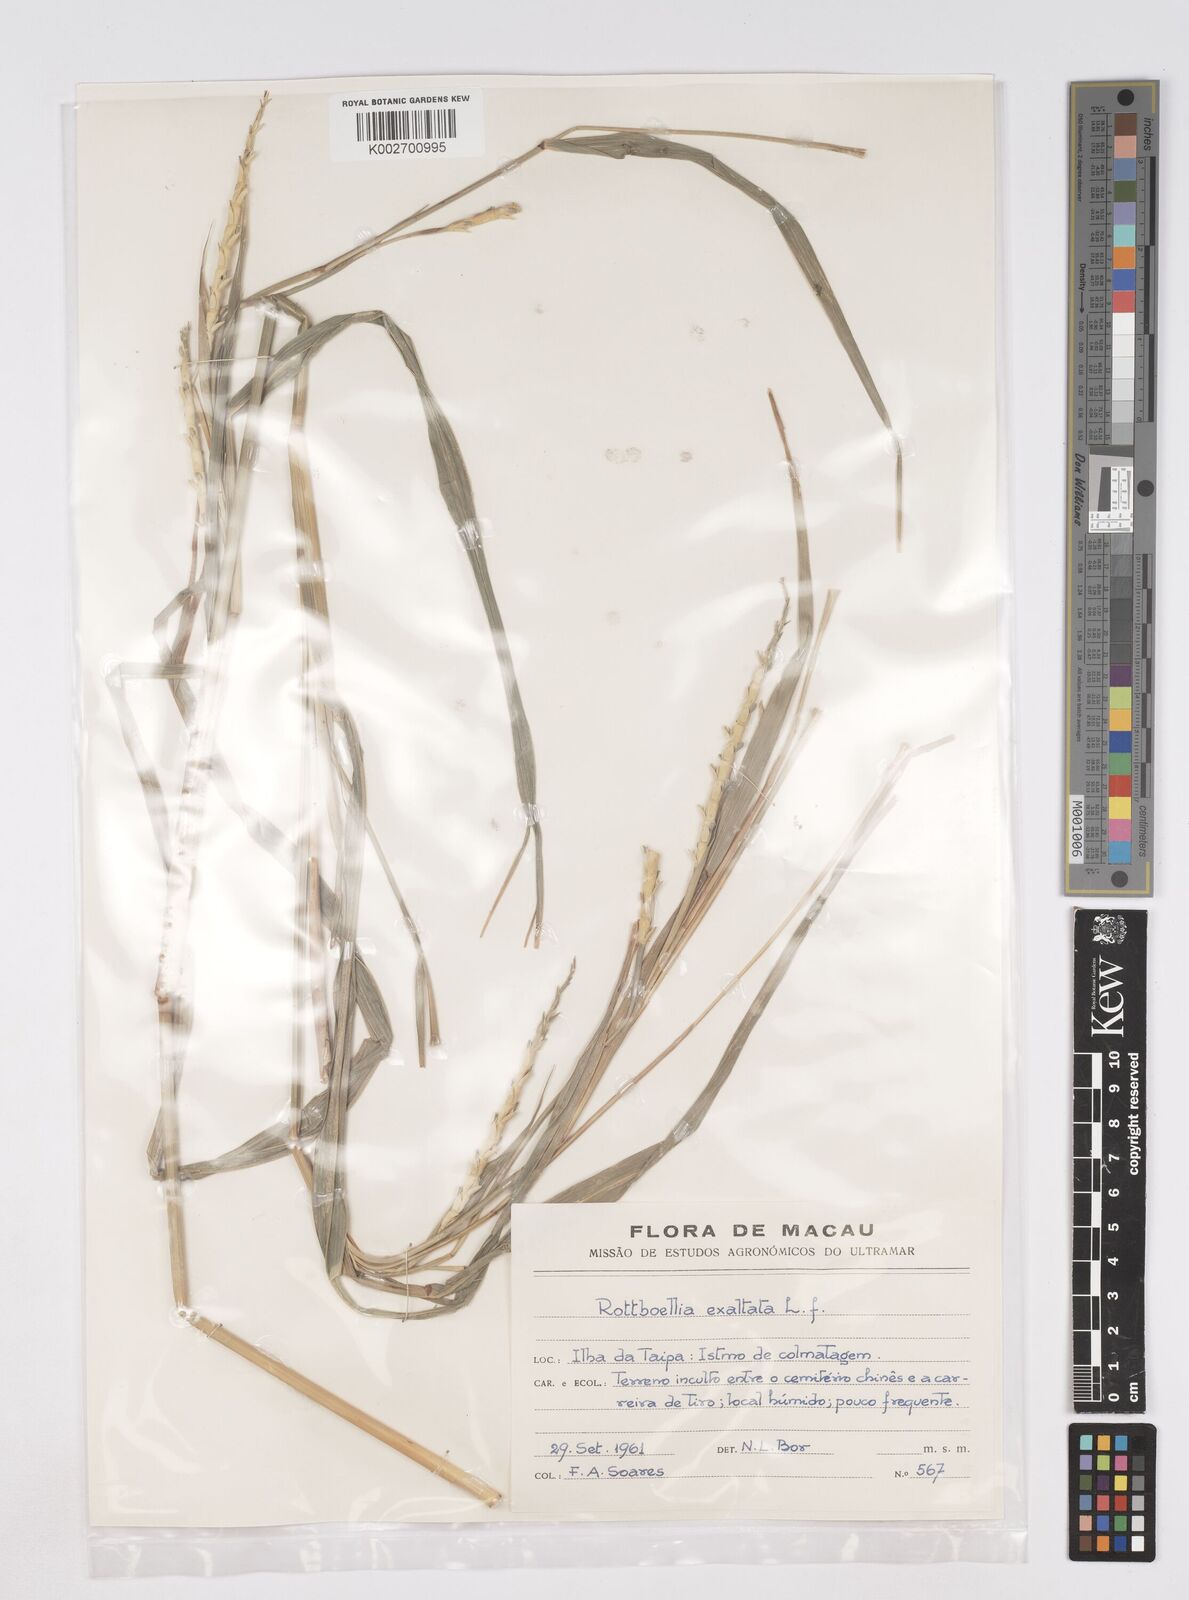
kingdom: Plantae
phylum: Tracheophyta
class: Liliopsida
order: Poales
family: Poaceae
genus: Rottboellia
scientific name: Rottboellia cochinchinensis
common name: Itchgrass
